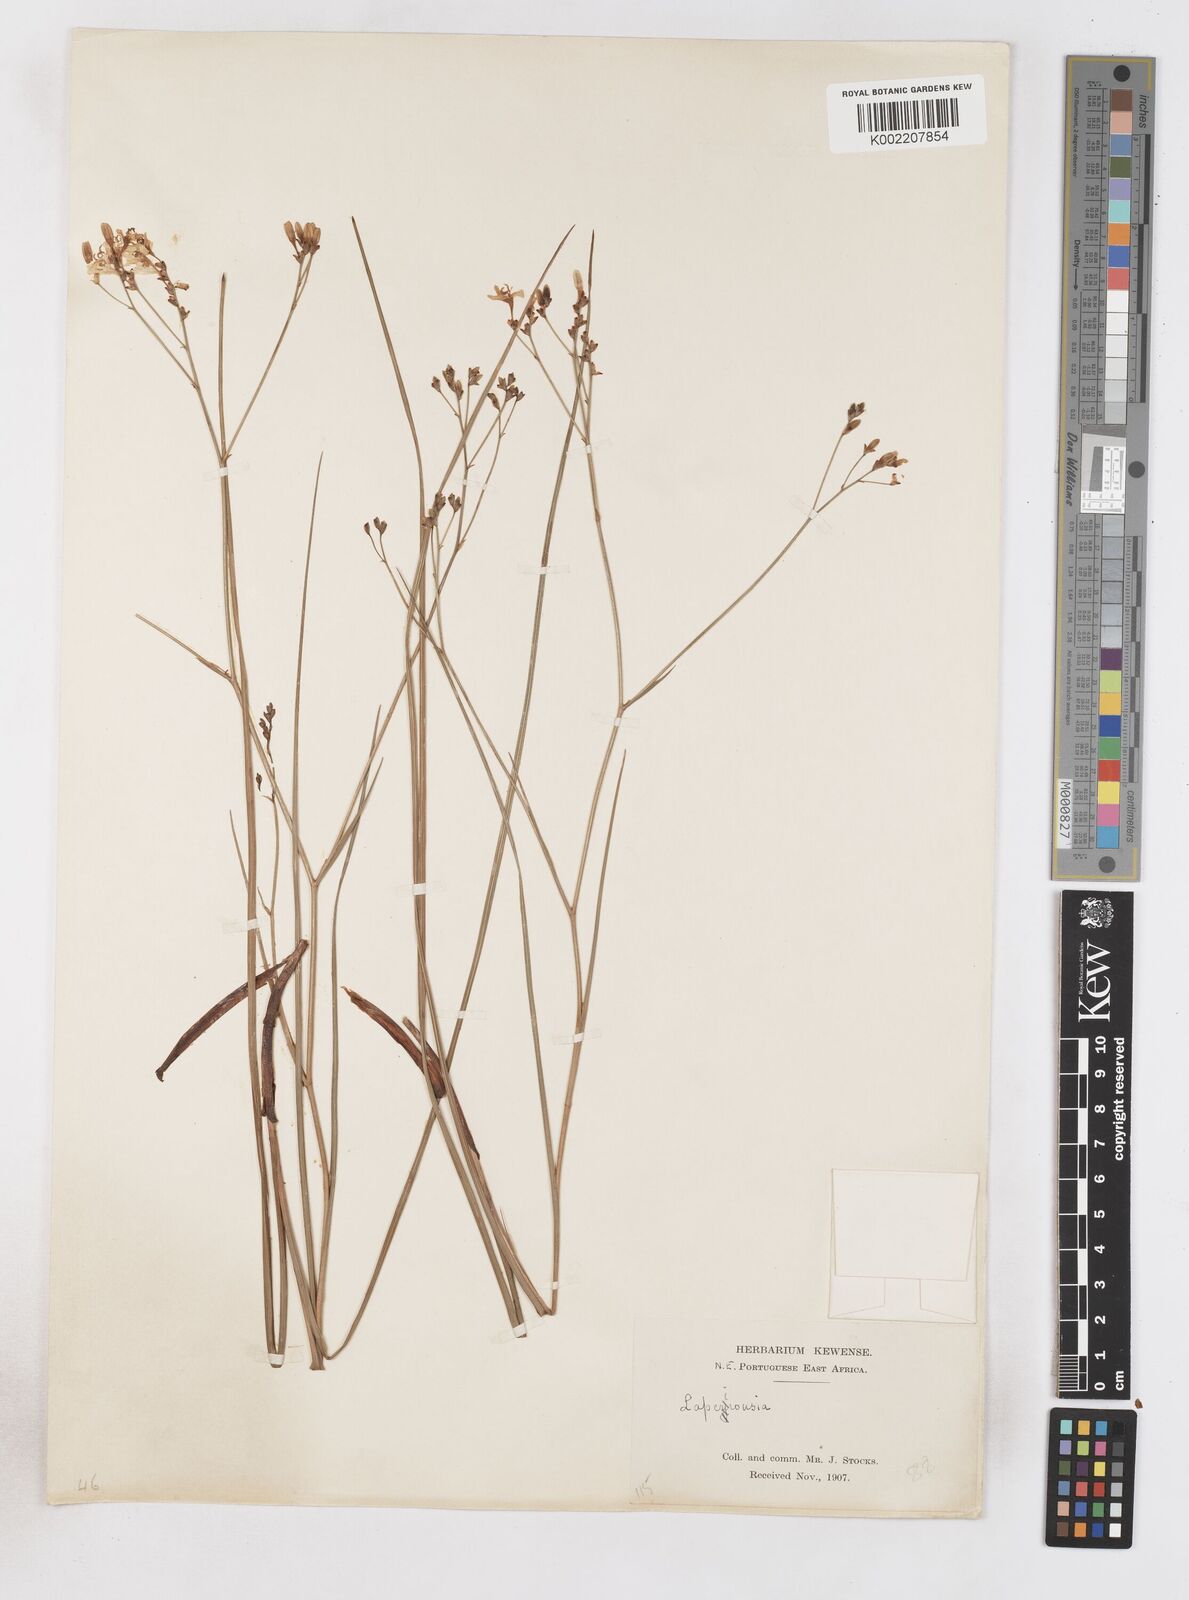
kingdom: Plantae
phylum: Tracheophyta
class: Liliopsida
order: Asparagales
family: Iridaceae
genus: Afrosolen
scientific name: Afrosolen erythranthus
